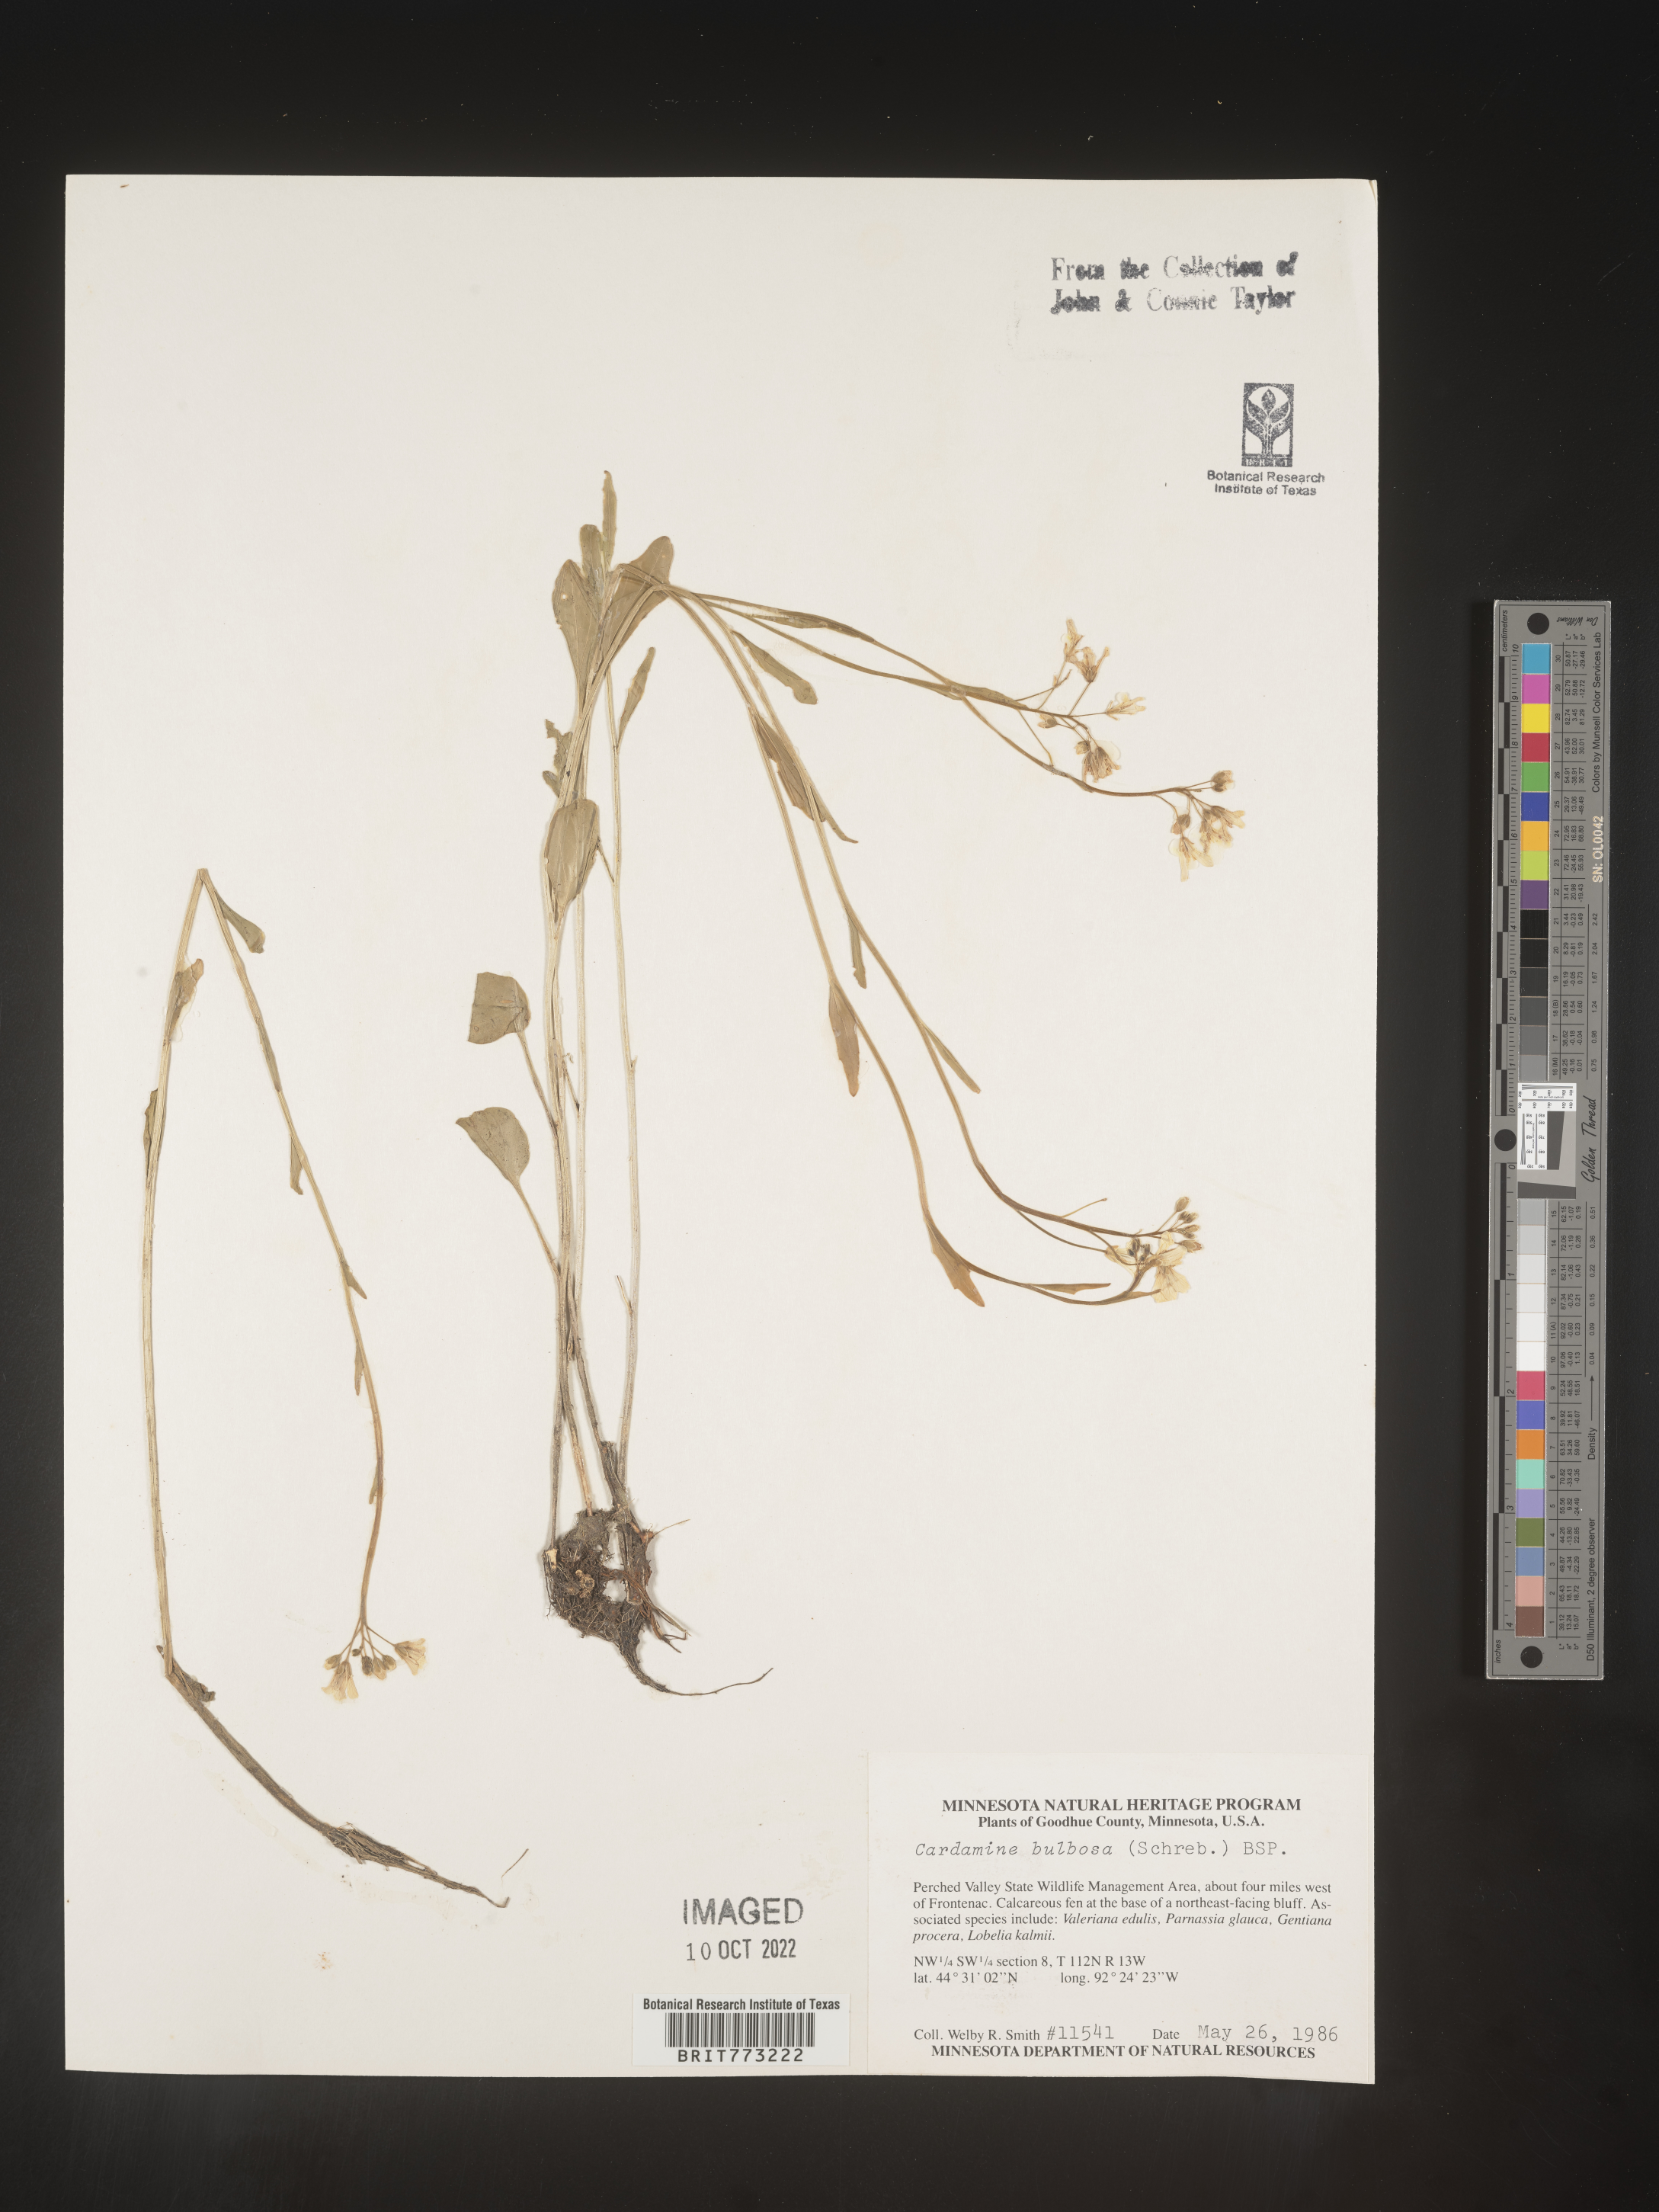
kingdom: Plantae
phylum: Tracheophyta
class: Magnoliopsida
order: Brassicales
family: Brassicaceae
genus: Cardamine
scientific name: Cardamine bulbosa
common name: Spring cress
